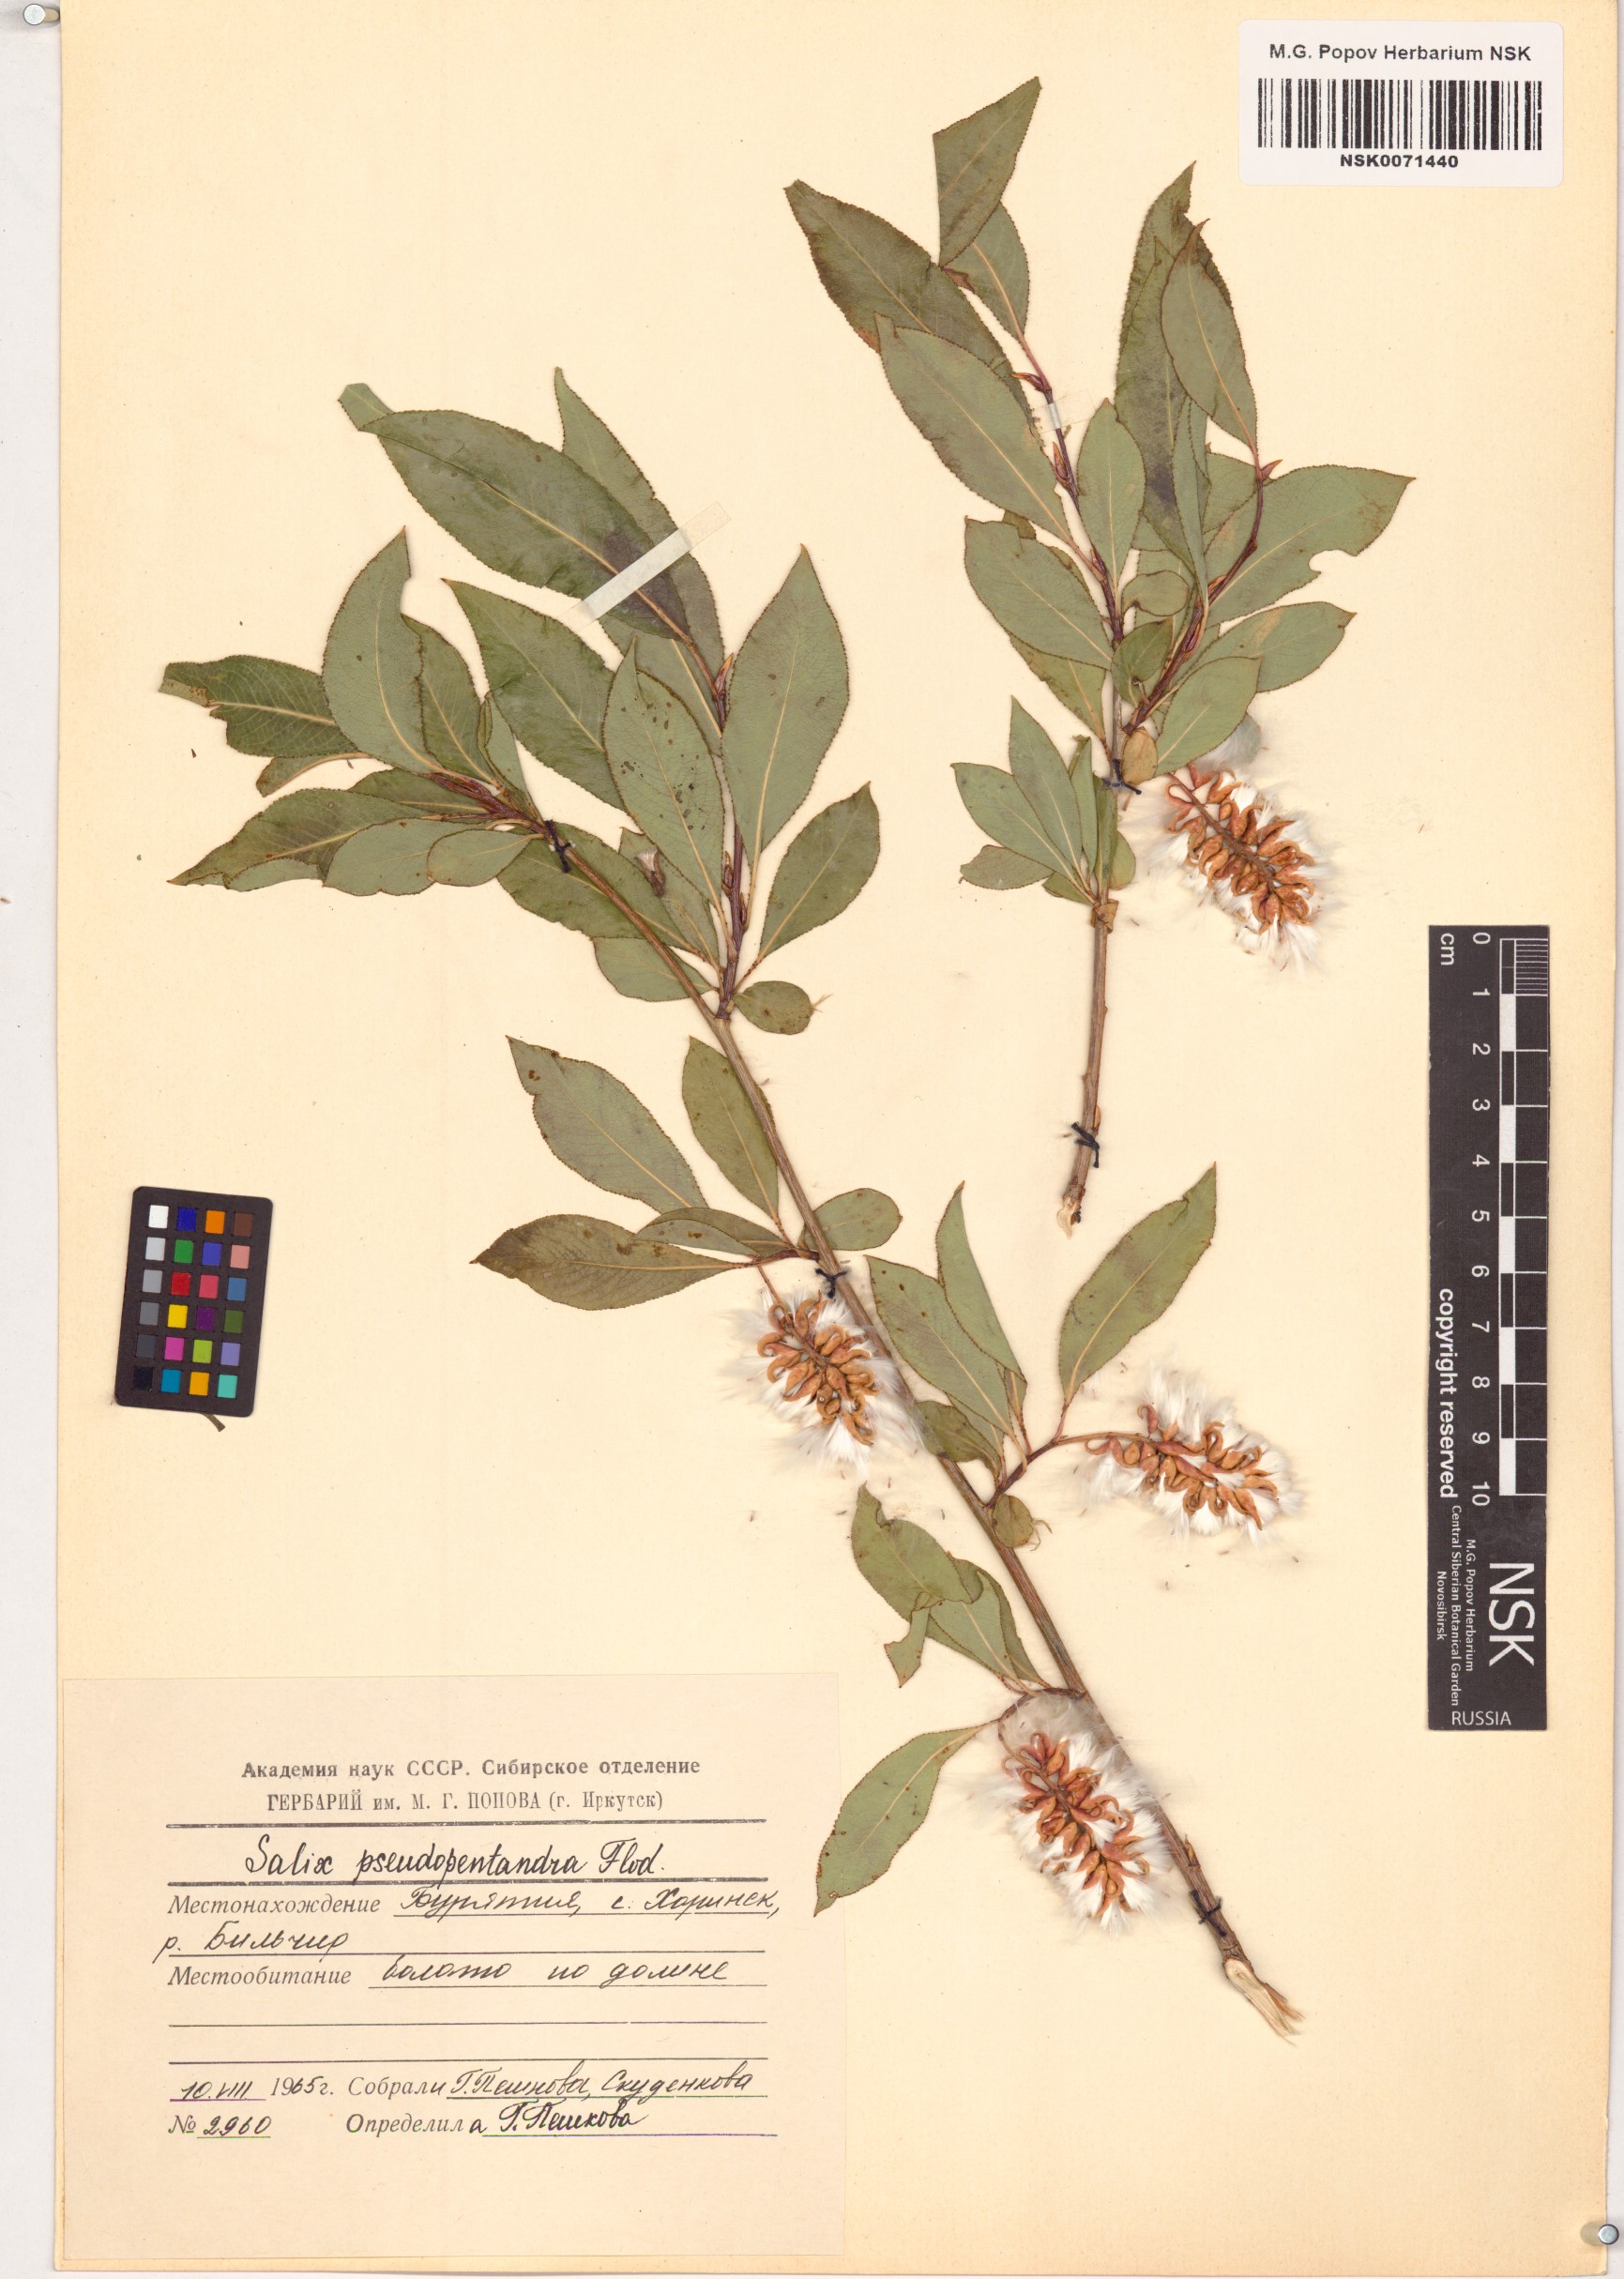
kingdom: Plantae
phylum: Tracheophyta
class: Magnoliopsida
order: Malpighiales
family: Salicaceae
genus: Salix
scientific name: Salix pseudopentandra
